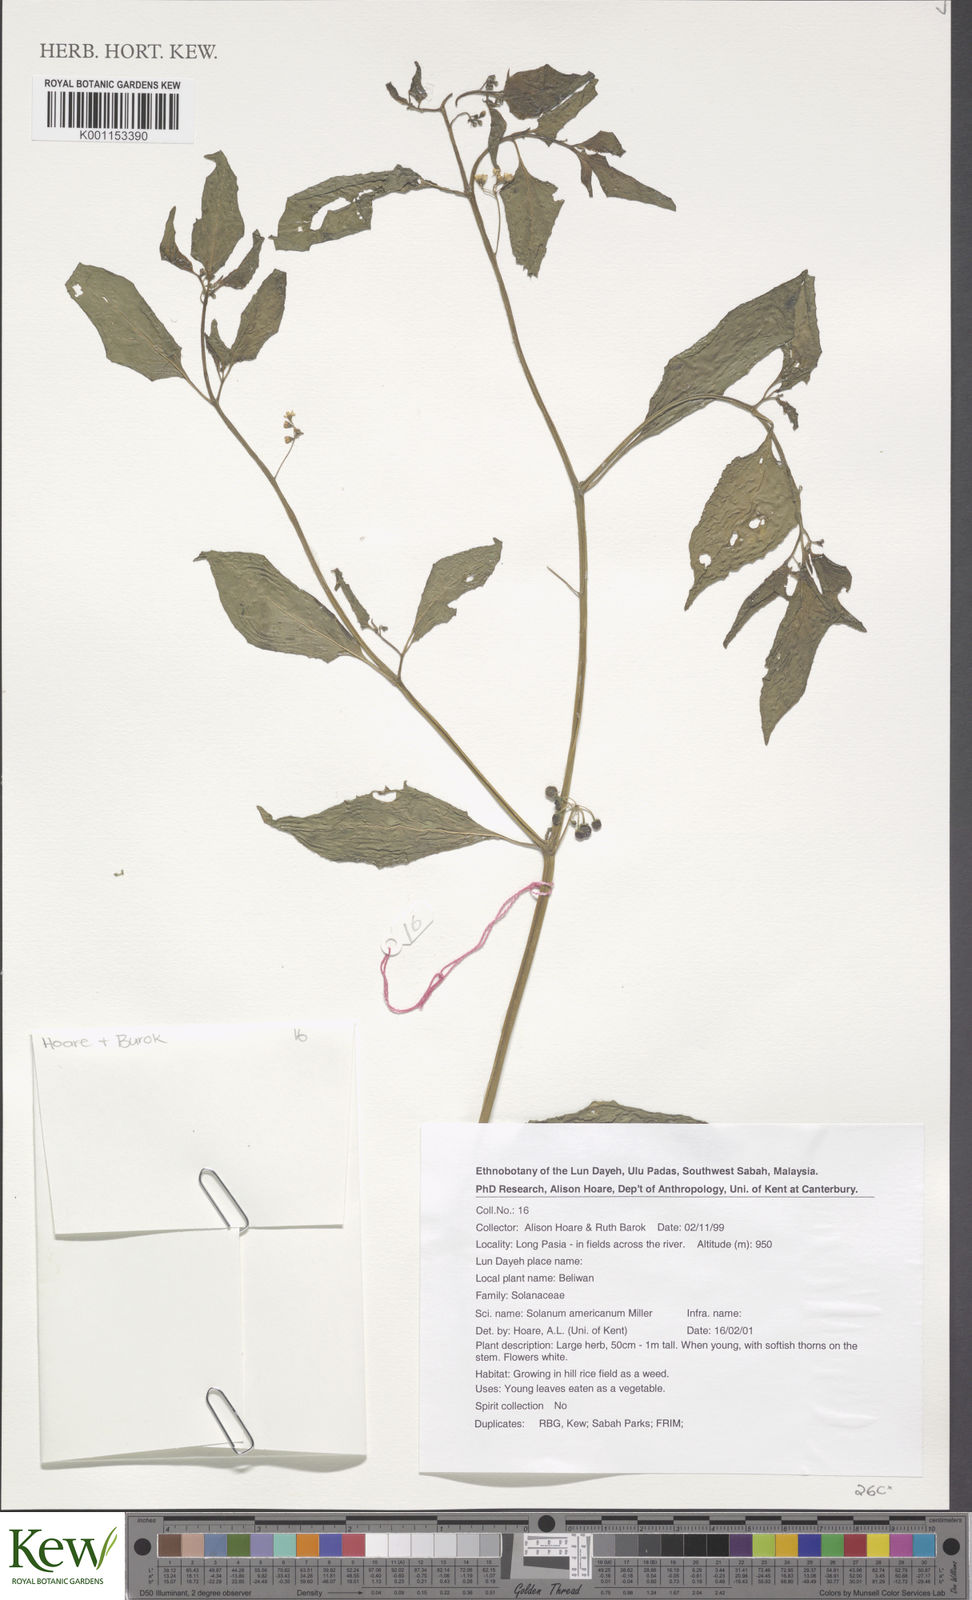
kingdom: Plantae
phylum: Tracheophyta
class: Magnoliopsida
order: Solanales
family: Solanaceae
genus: Solanum
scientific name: Solanum americanum
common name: American black nightshade
